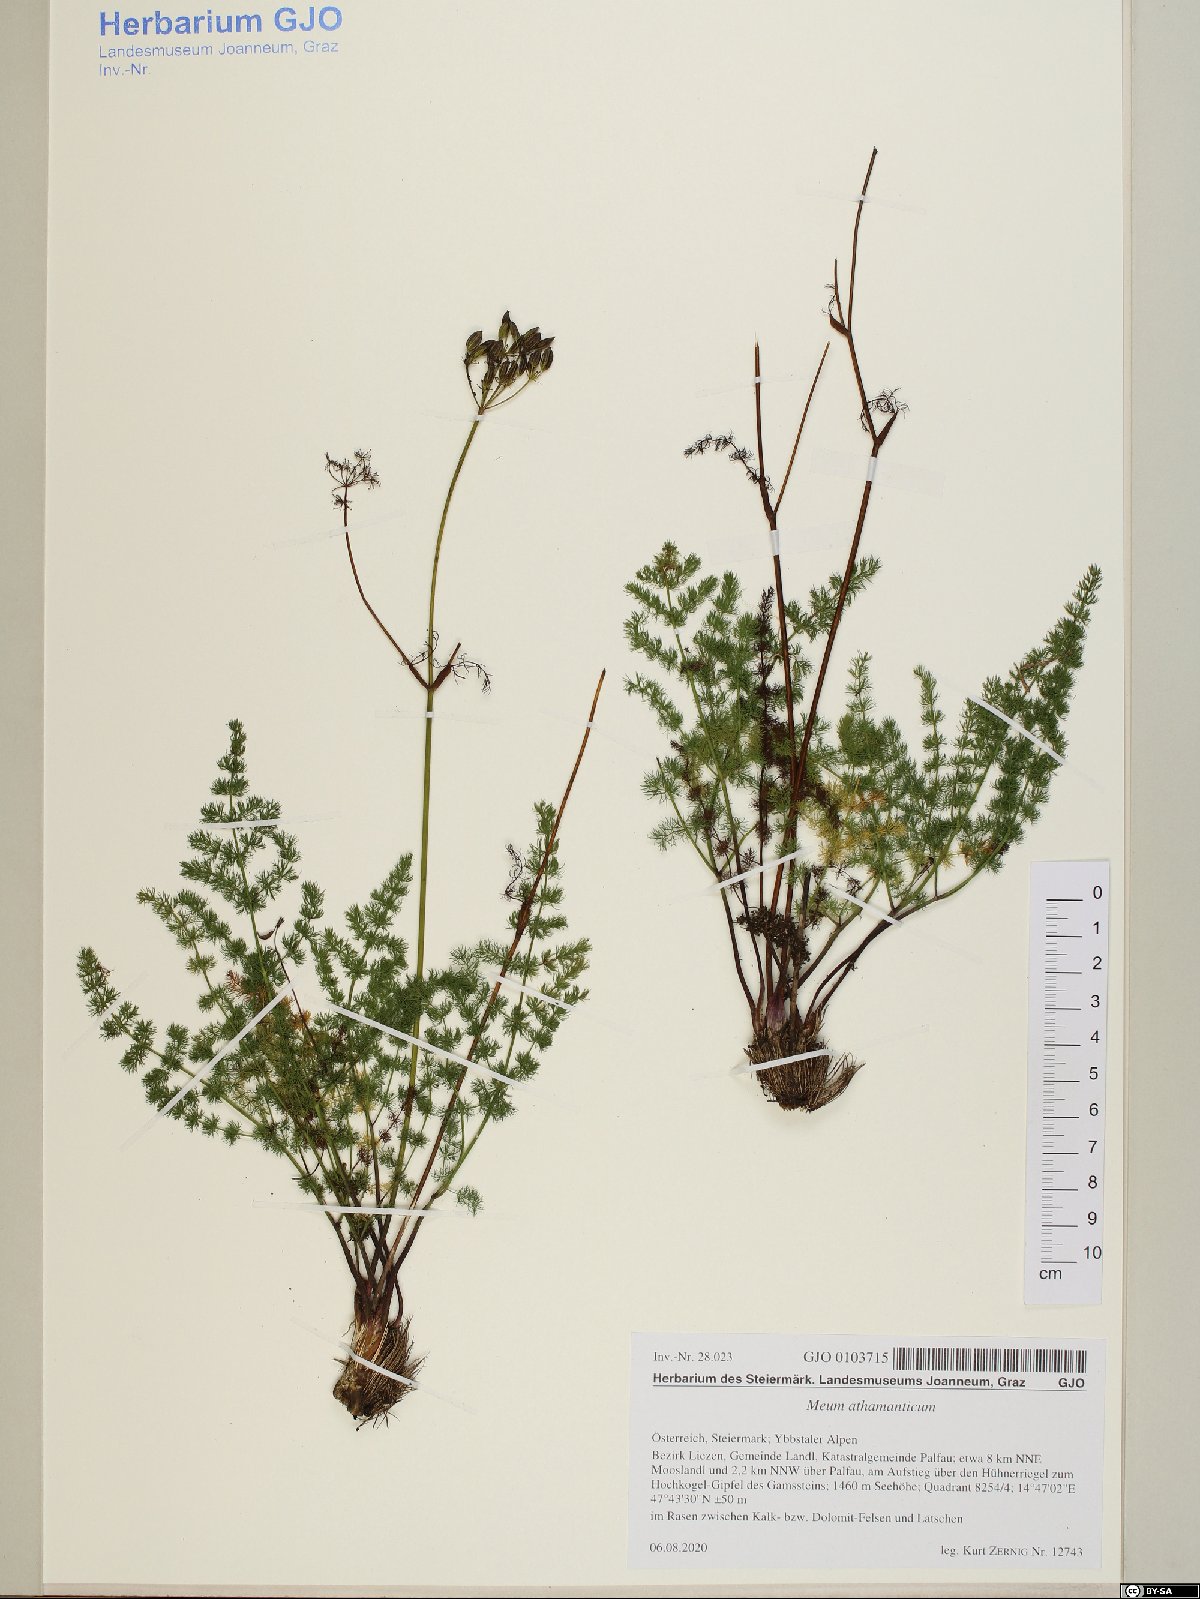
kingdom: Plantae
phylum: Tracheophyta
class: Magnoliopsida
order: Apiales
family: Apiaceae
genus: Meum
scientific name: Meum athamanticum
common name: Spignel
